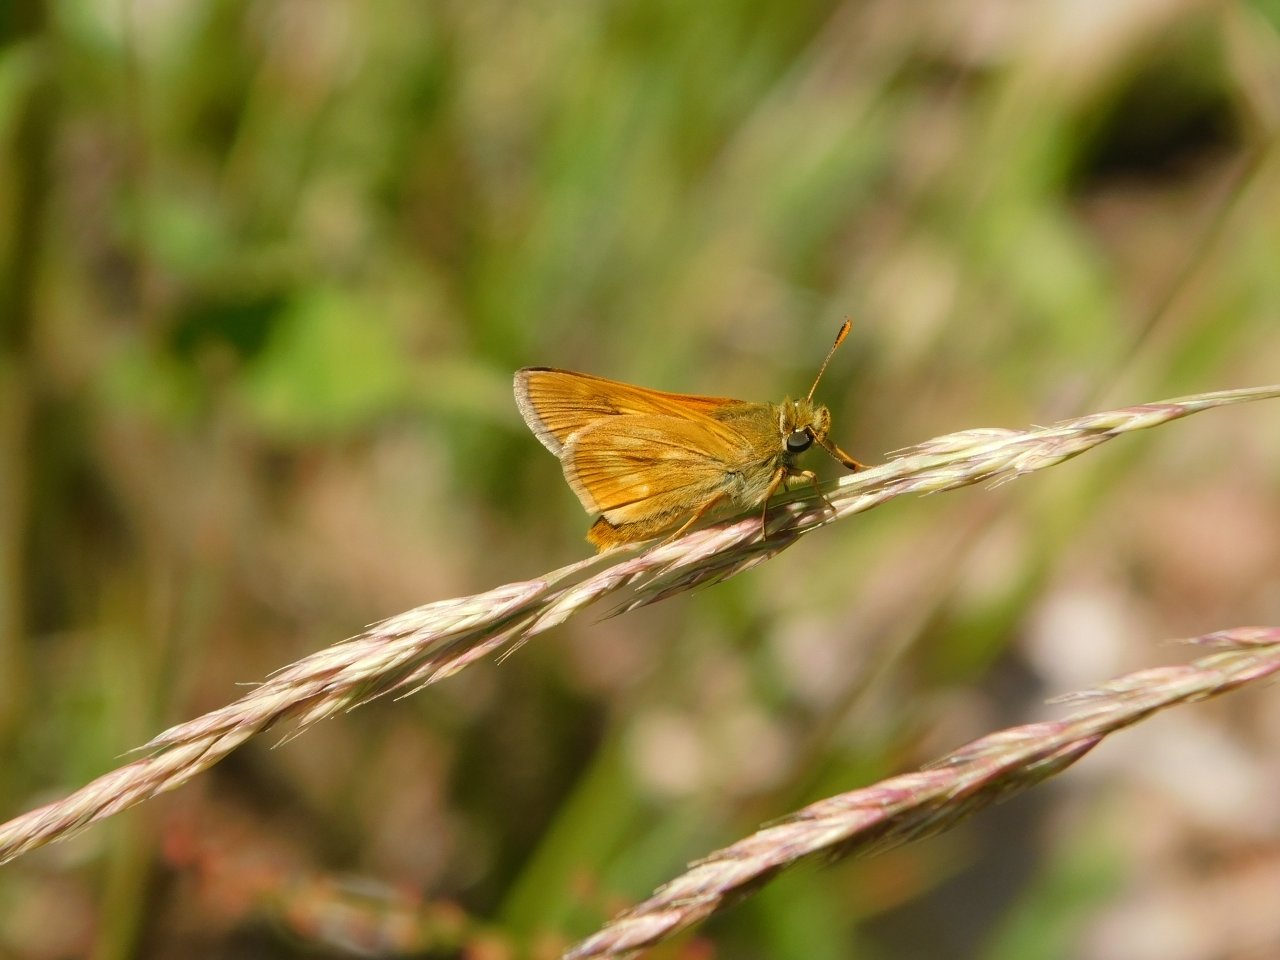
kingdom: Animalia
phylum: Arthropoda
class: Insecta
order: Lepidoptera
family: Hesperiidae
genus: Polites
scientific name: Polites
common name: Long Dash Skipper
